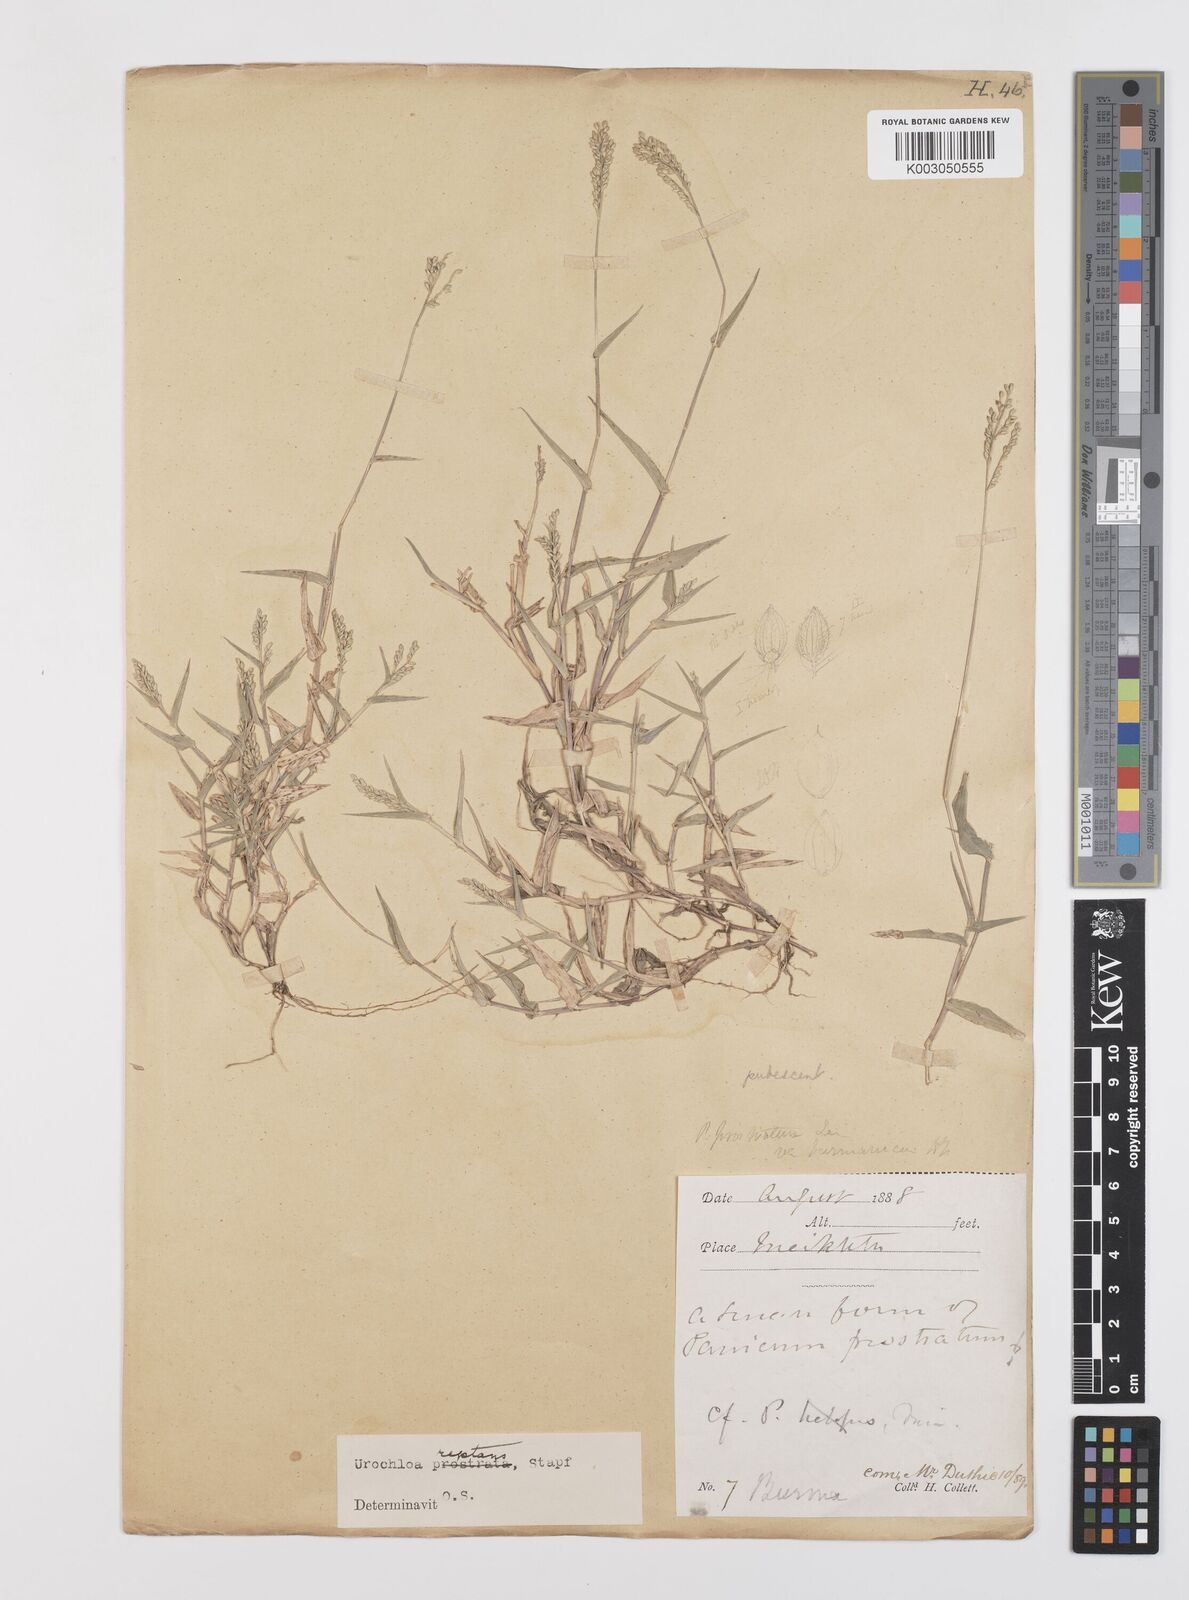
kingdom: Plantae
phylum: Tracheophyta
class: Liliopsida
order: Poales
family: Poaceae
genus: Urochloa
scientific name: Urochloa reptans
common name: Sprawling signalgrass
